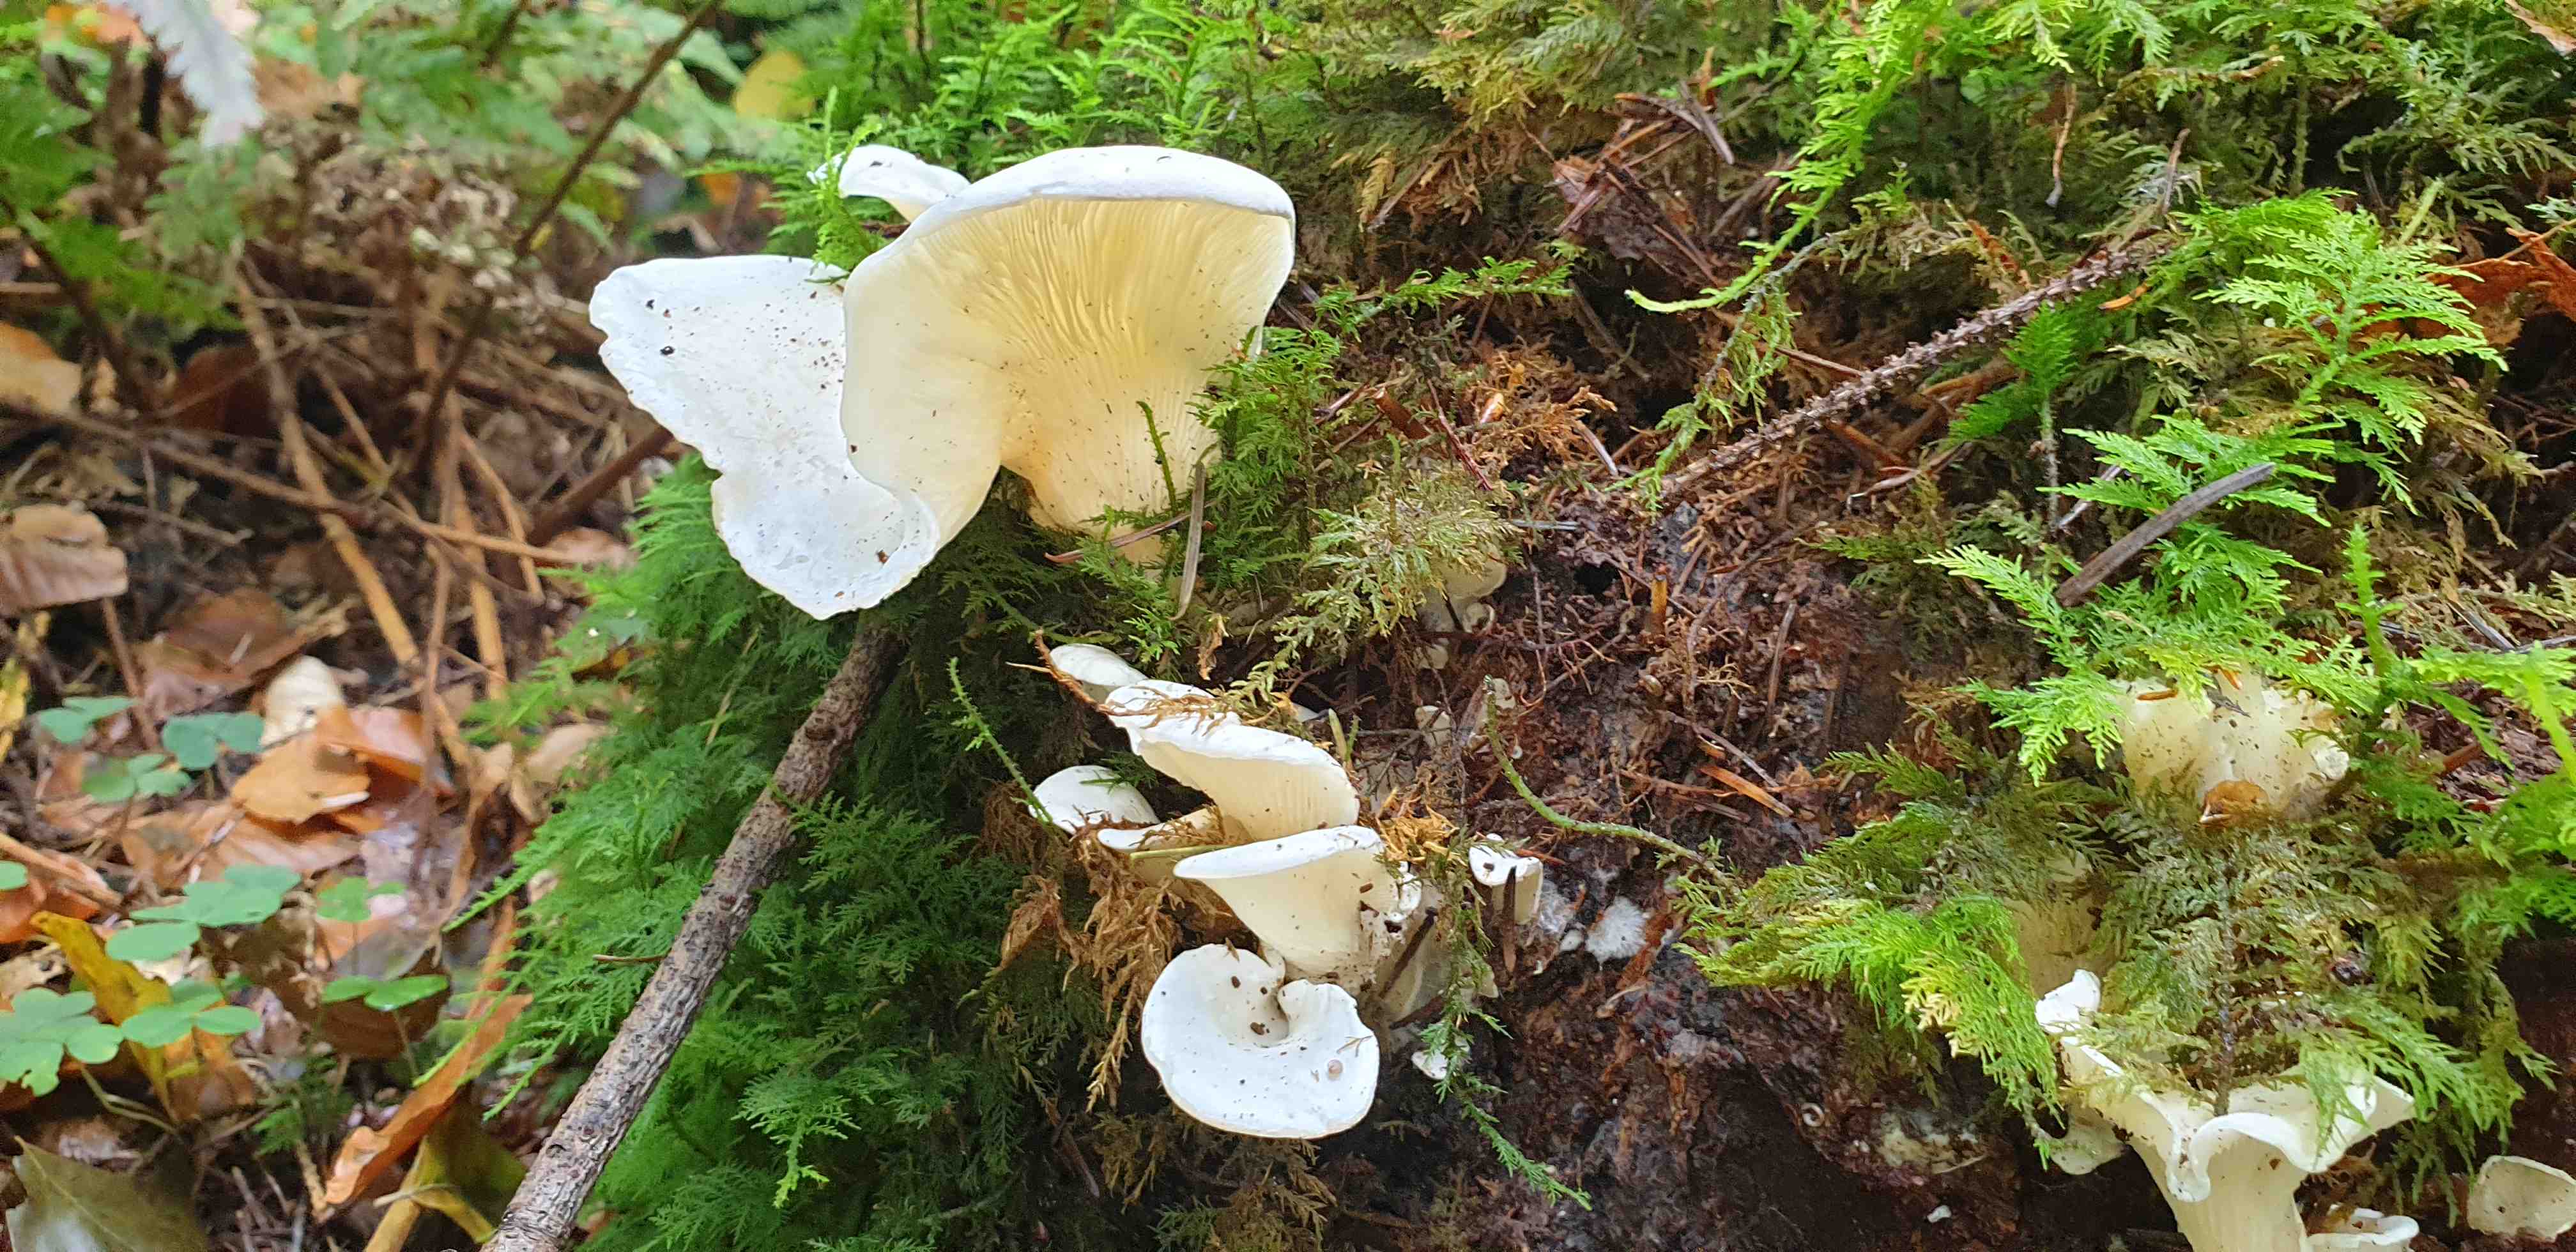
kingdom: Fungi
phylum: Basidiomycota
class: Agaricomycetes
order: Agaricales
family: Marasmiaceae
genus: Pleurocybella
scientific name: Pleurocybella porrigens
